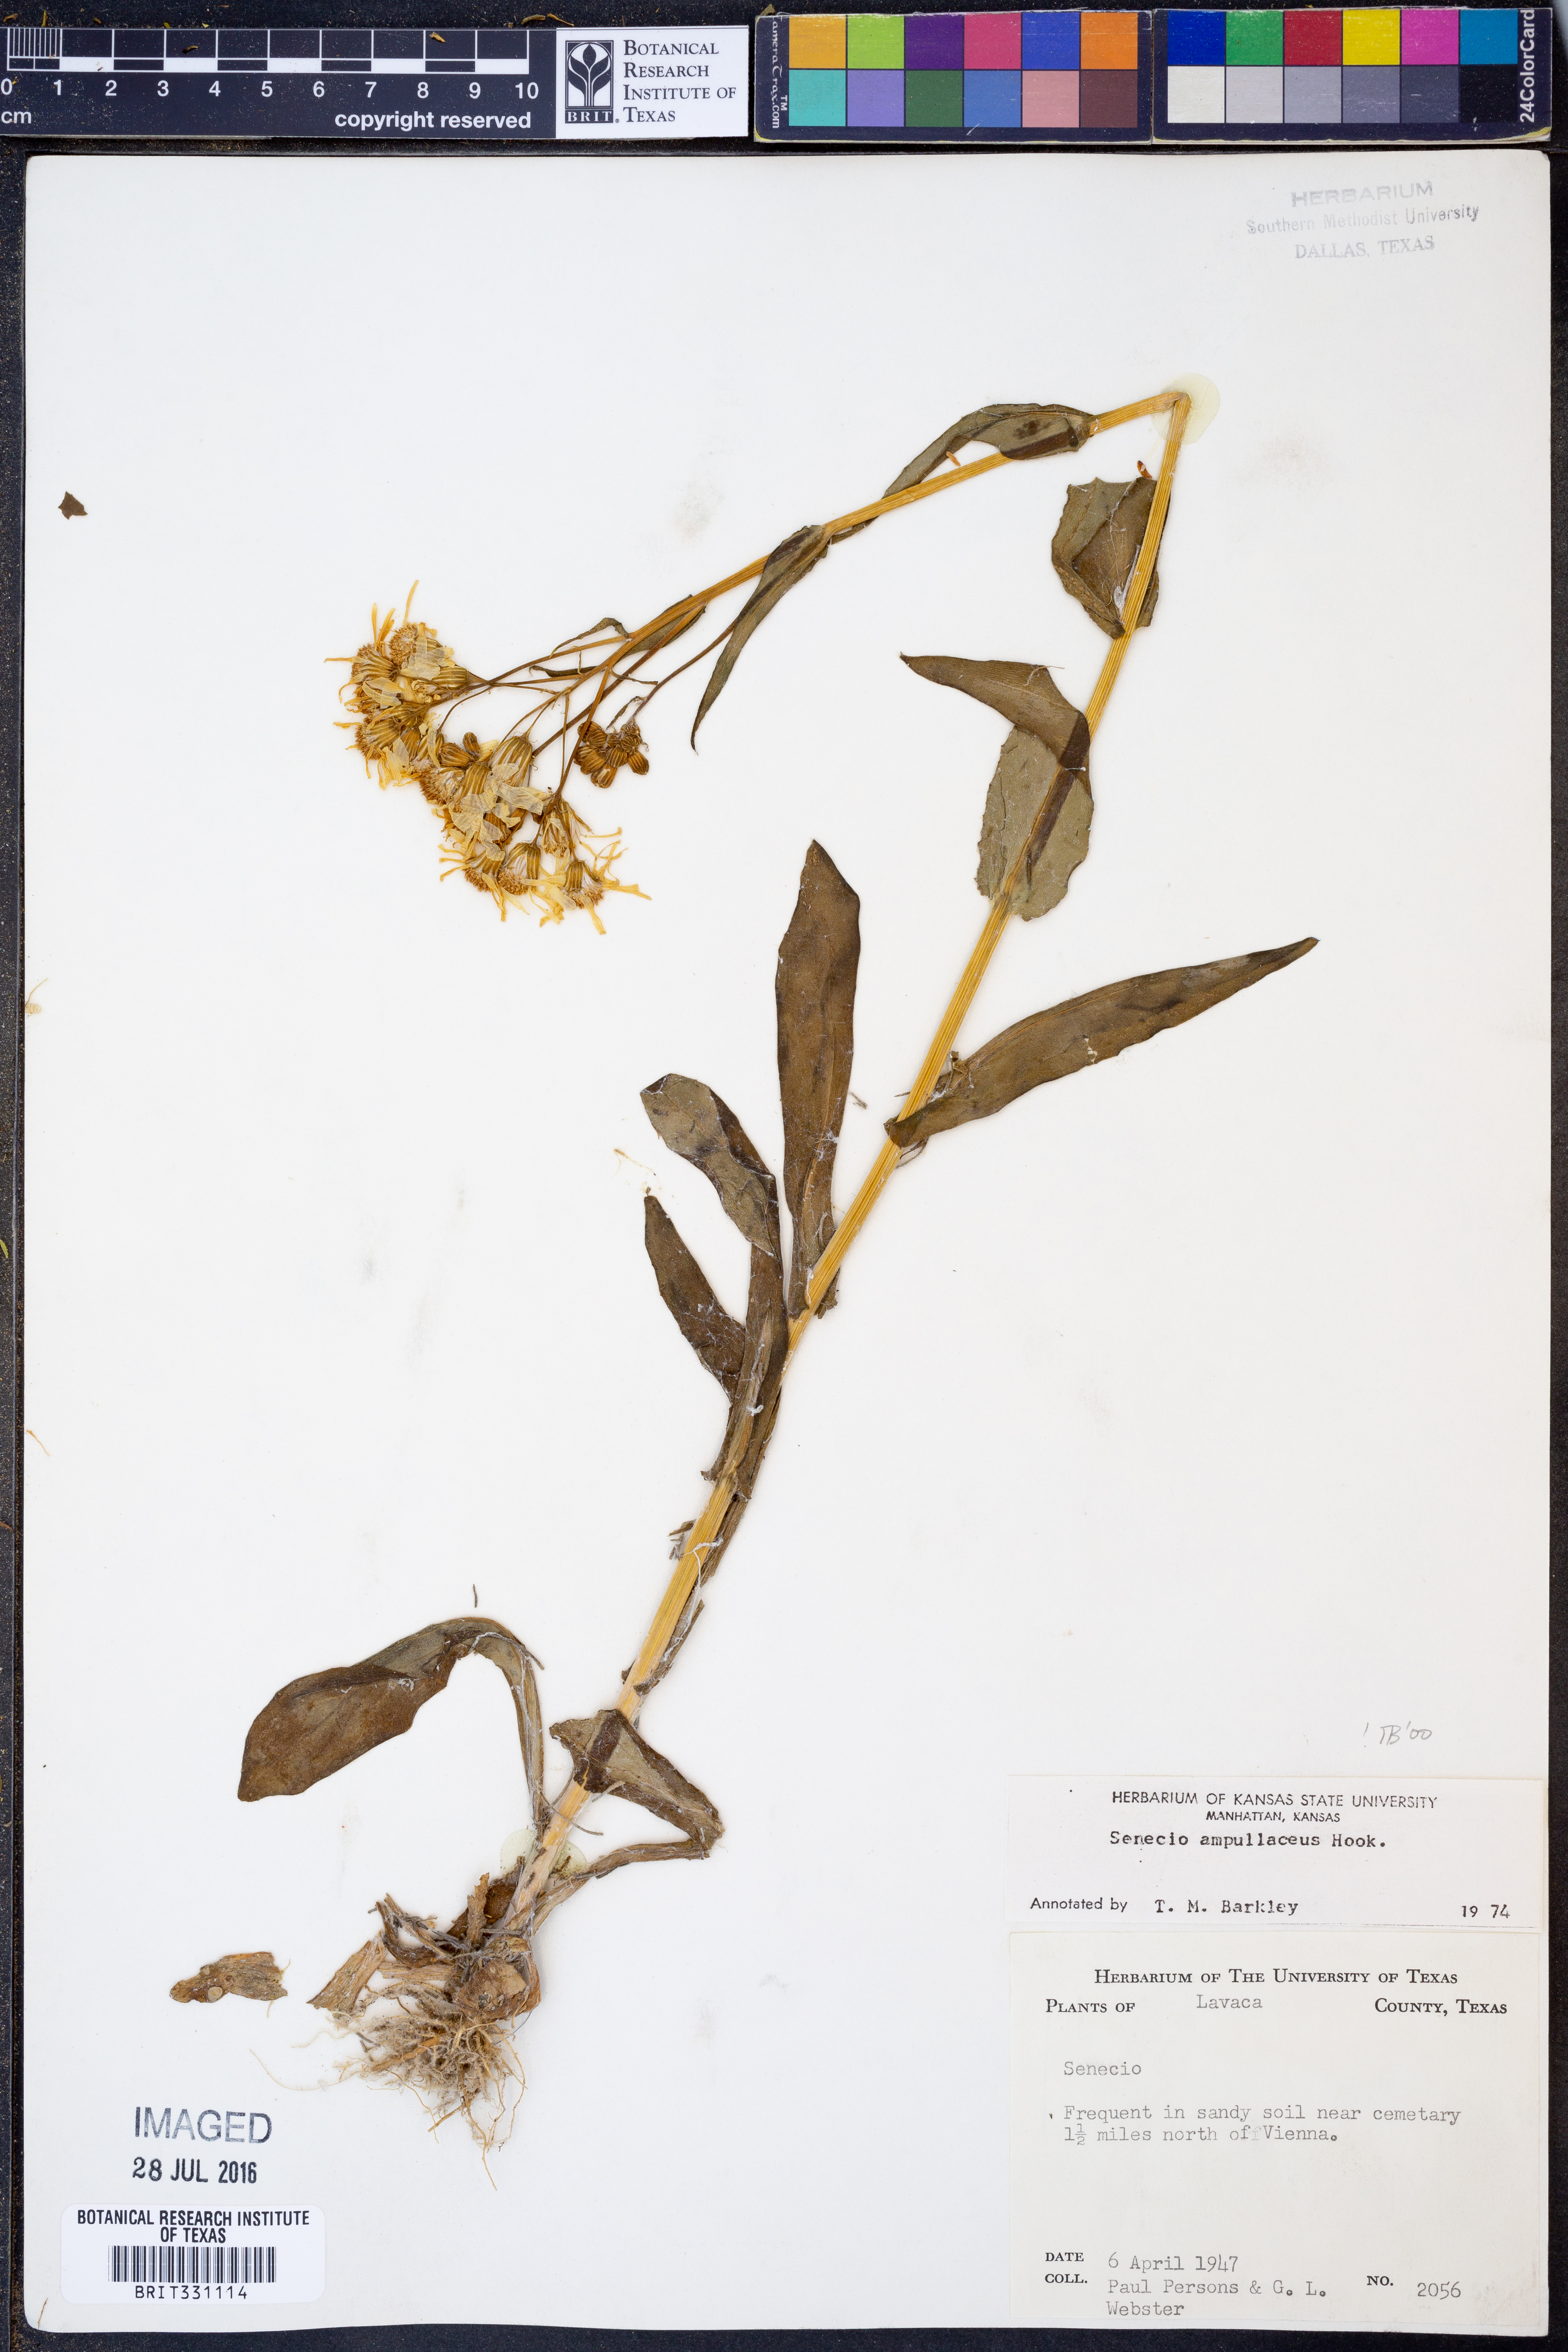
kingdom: Plantae
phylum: Tracheophyta
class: Magnoliopsida
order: Asterales
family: Asteraceae
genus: Senecio
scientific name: Senecio ampullaceus
